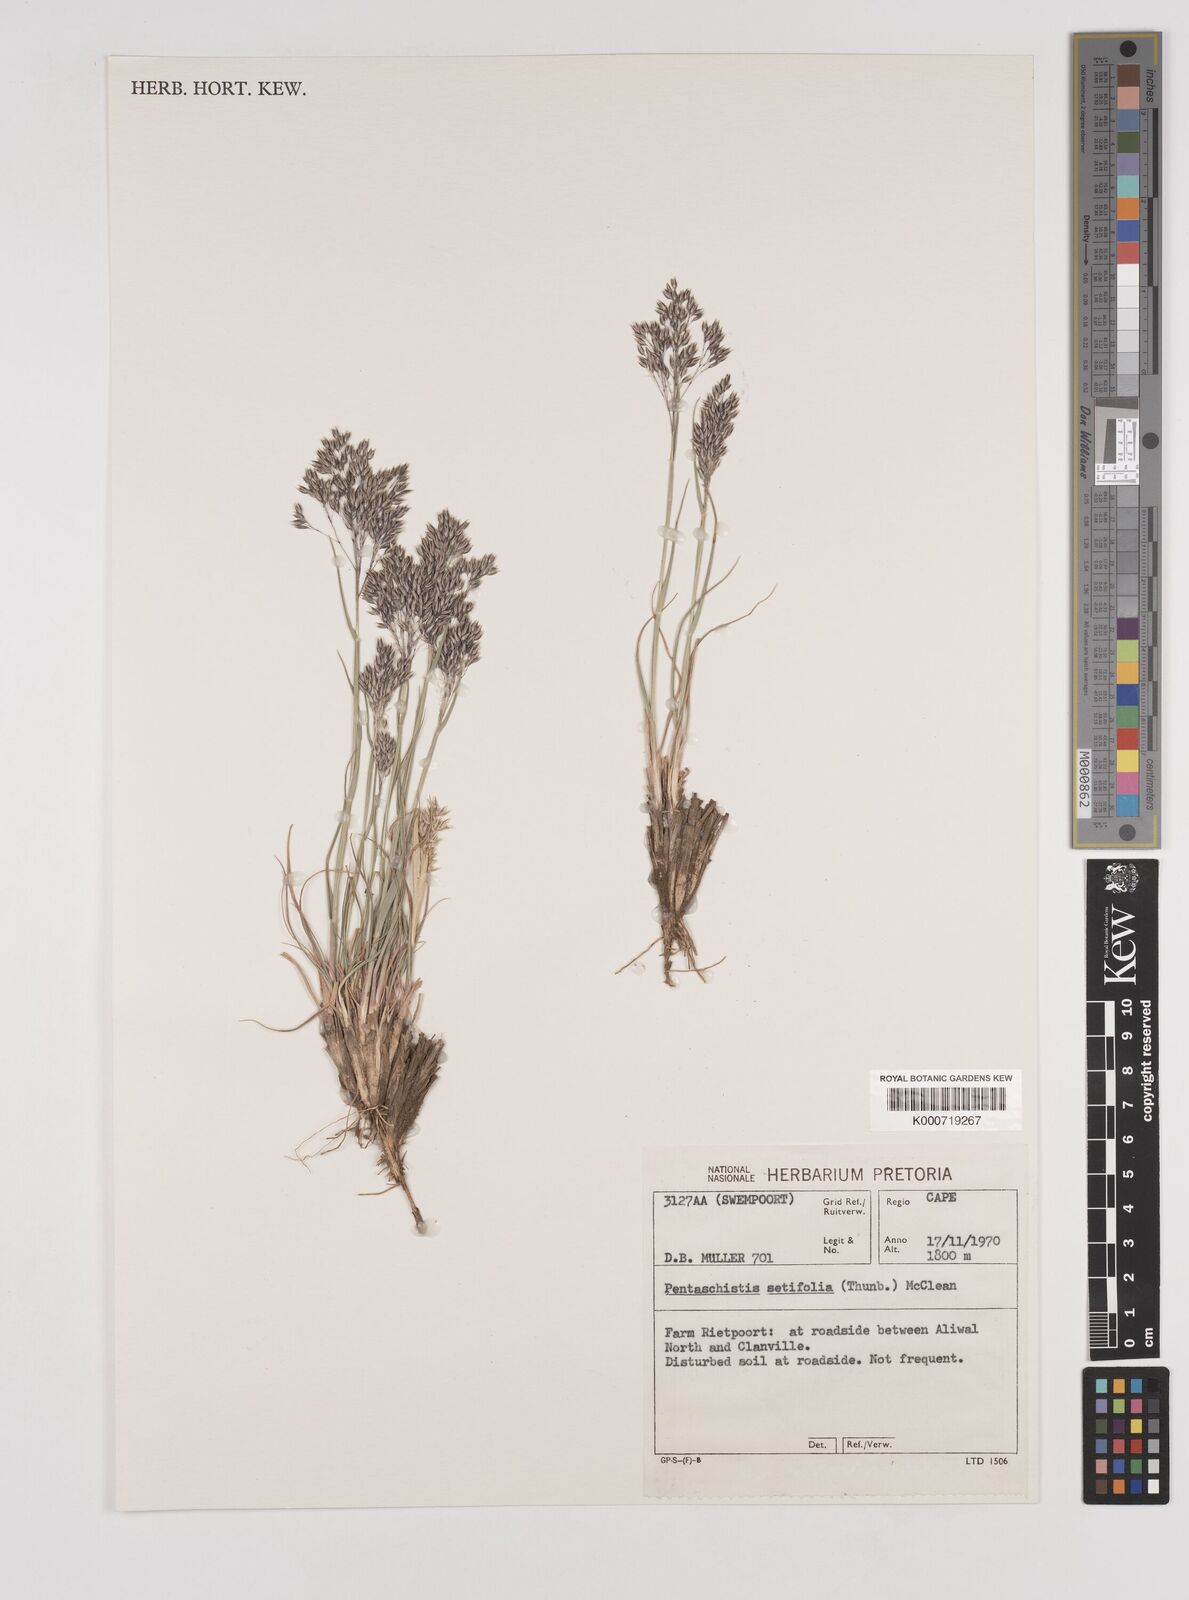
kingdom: Plantae
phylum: Tracheophyta
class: Liliopsida
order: Poales
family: Poaceae
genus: Pentameris
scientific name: Pentameris setifolia
